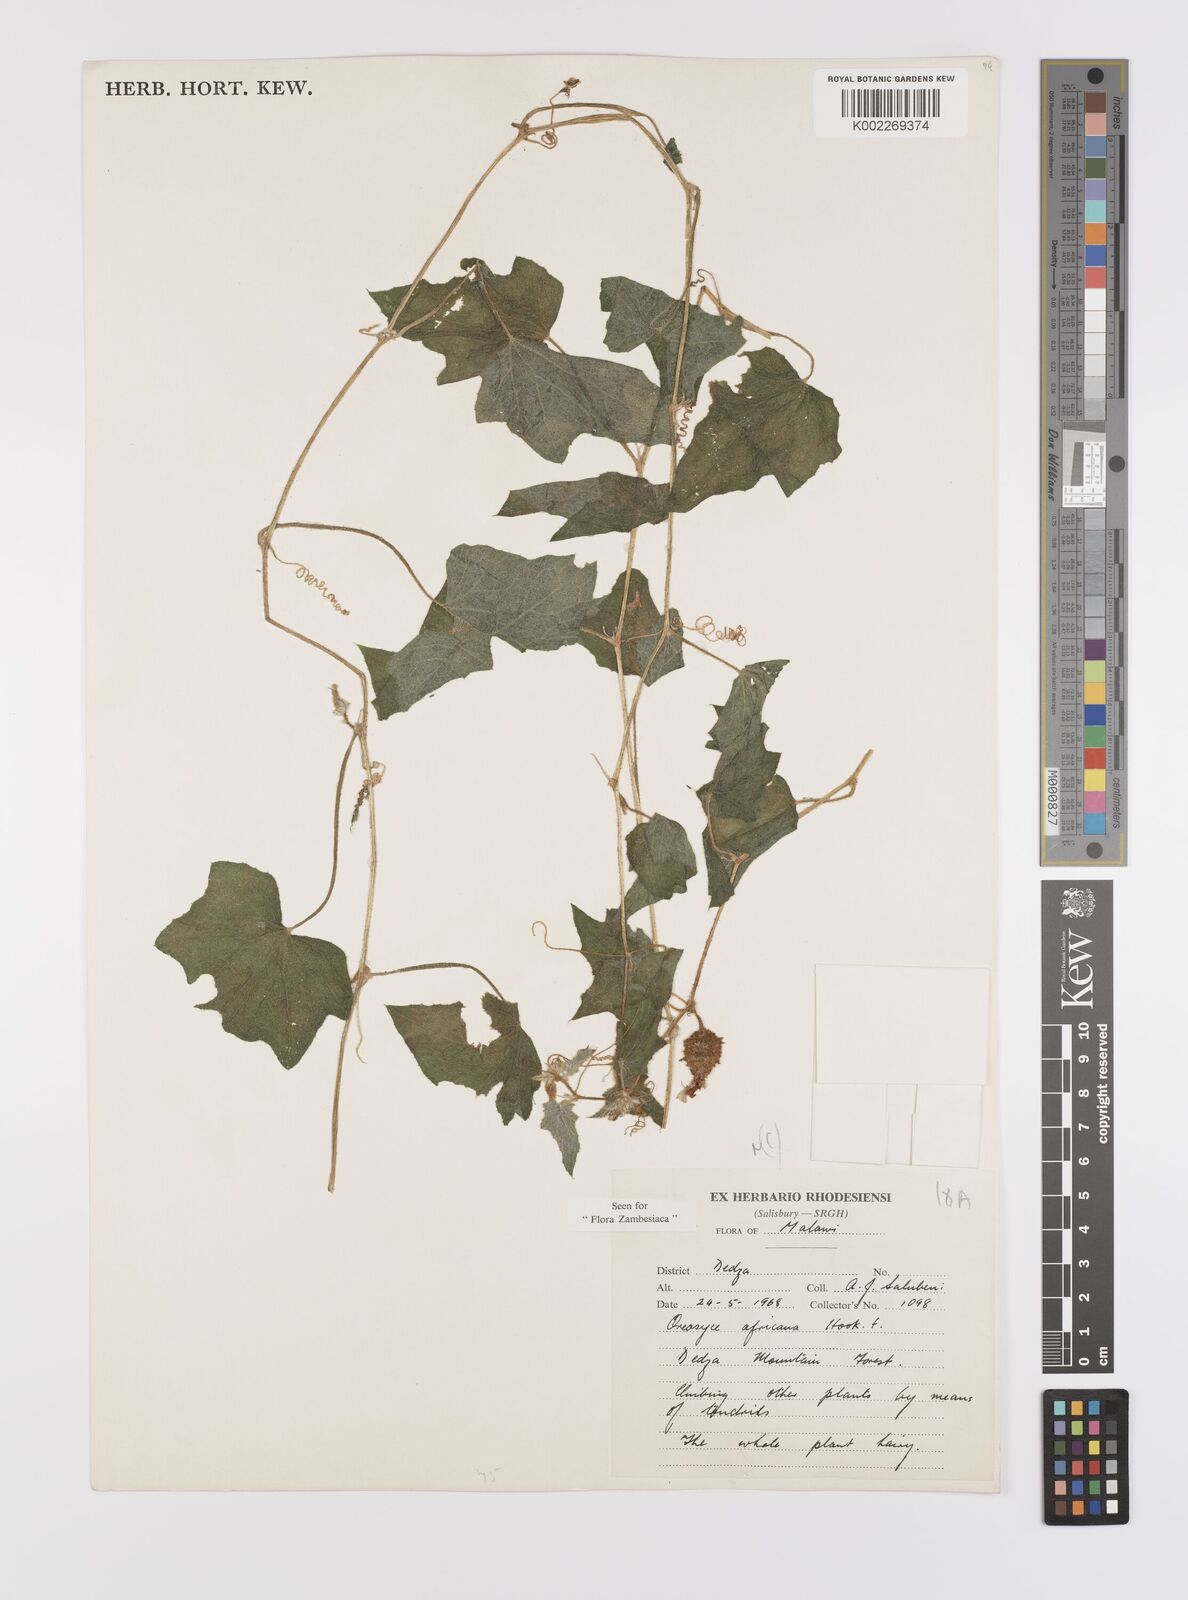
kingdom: Plantae
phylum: Tracheophyta
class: Magnoliopsida
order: Cucurbitales
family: Cucurbitaceae
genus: Cucumis
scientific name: Cucumis oreosyce
